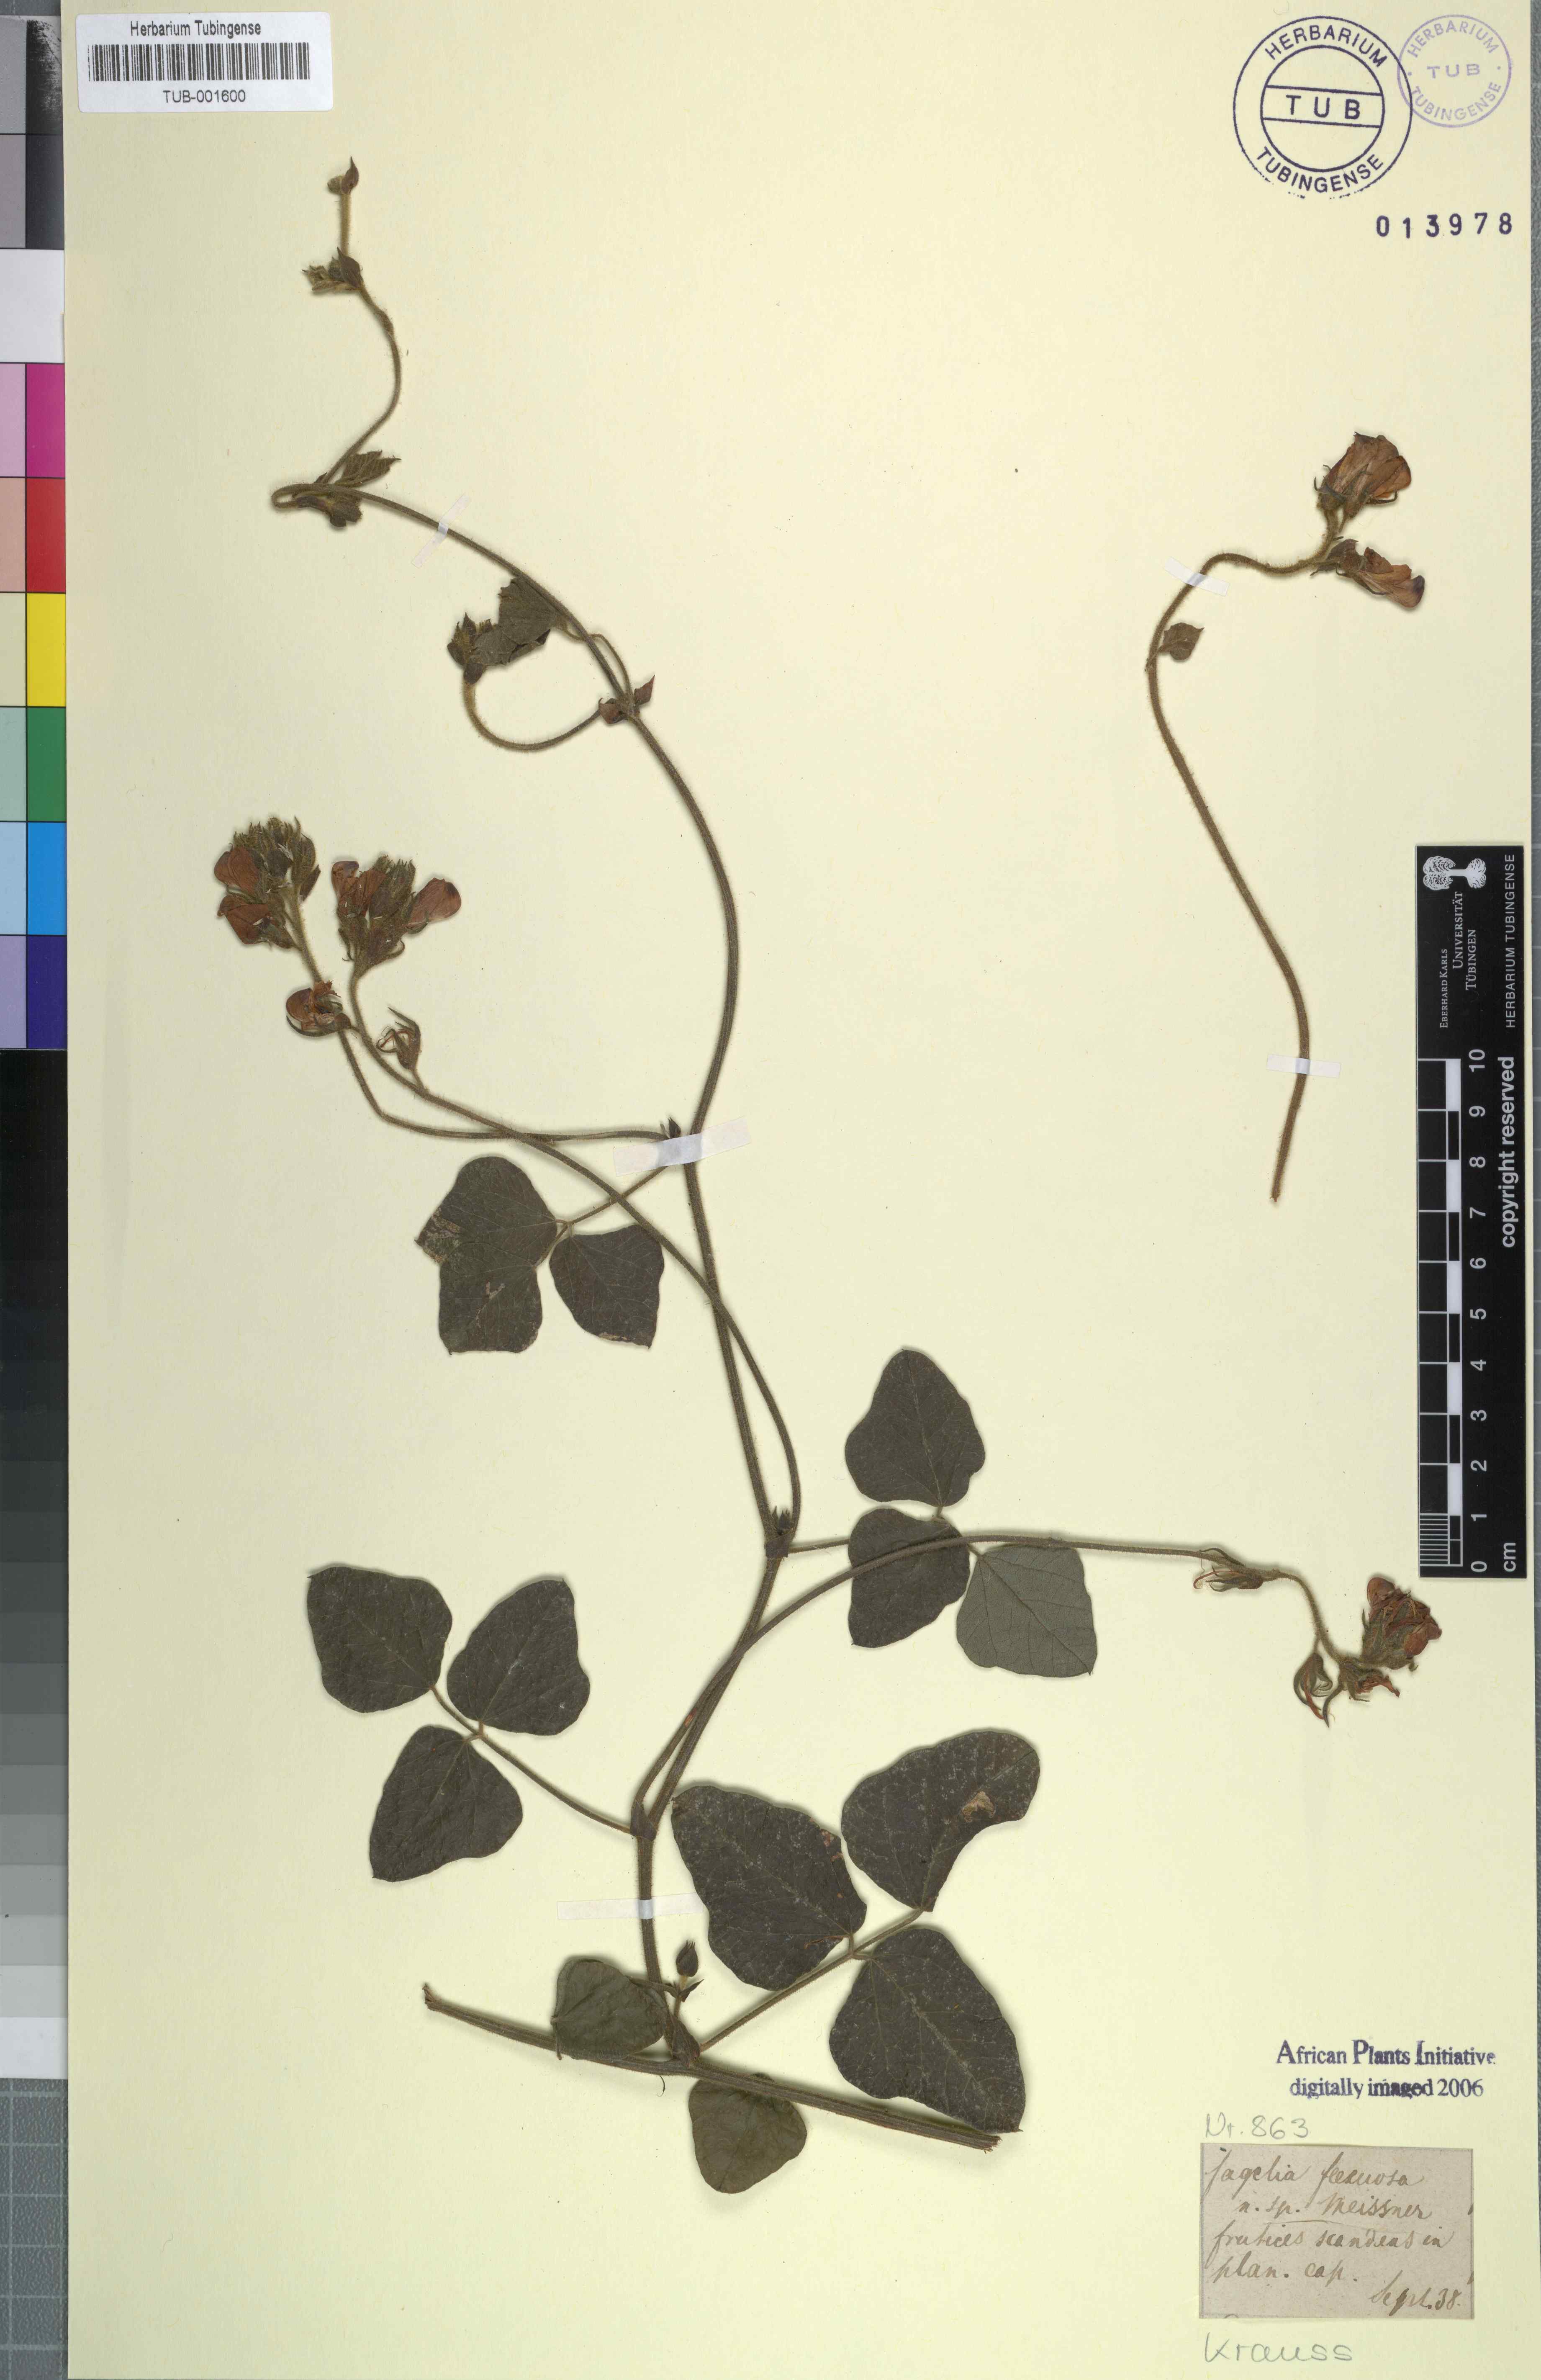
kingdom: Plantae
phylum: Tracheophyta
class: Magnoliopsida
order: Fabales
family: Fabaceae
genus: Bolusafra
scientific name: Bolusafra bituminosa
